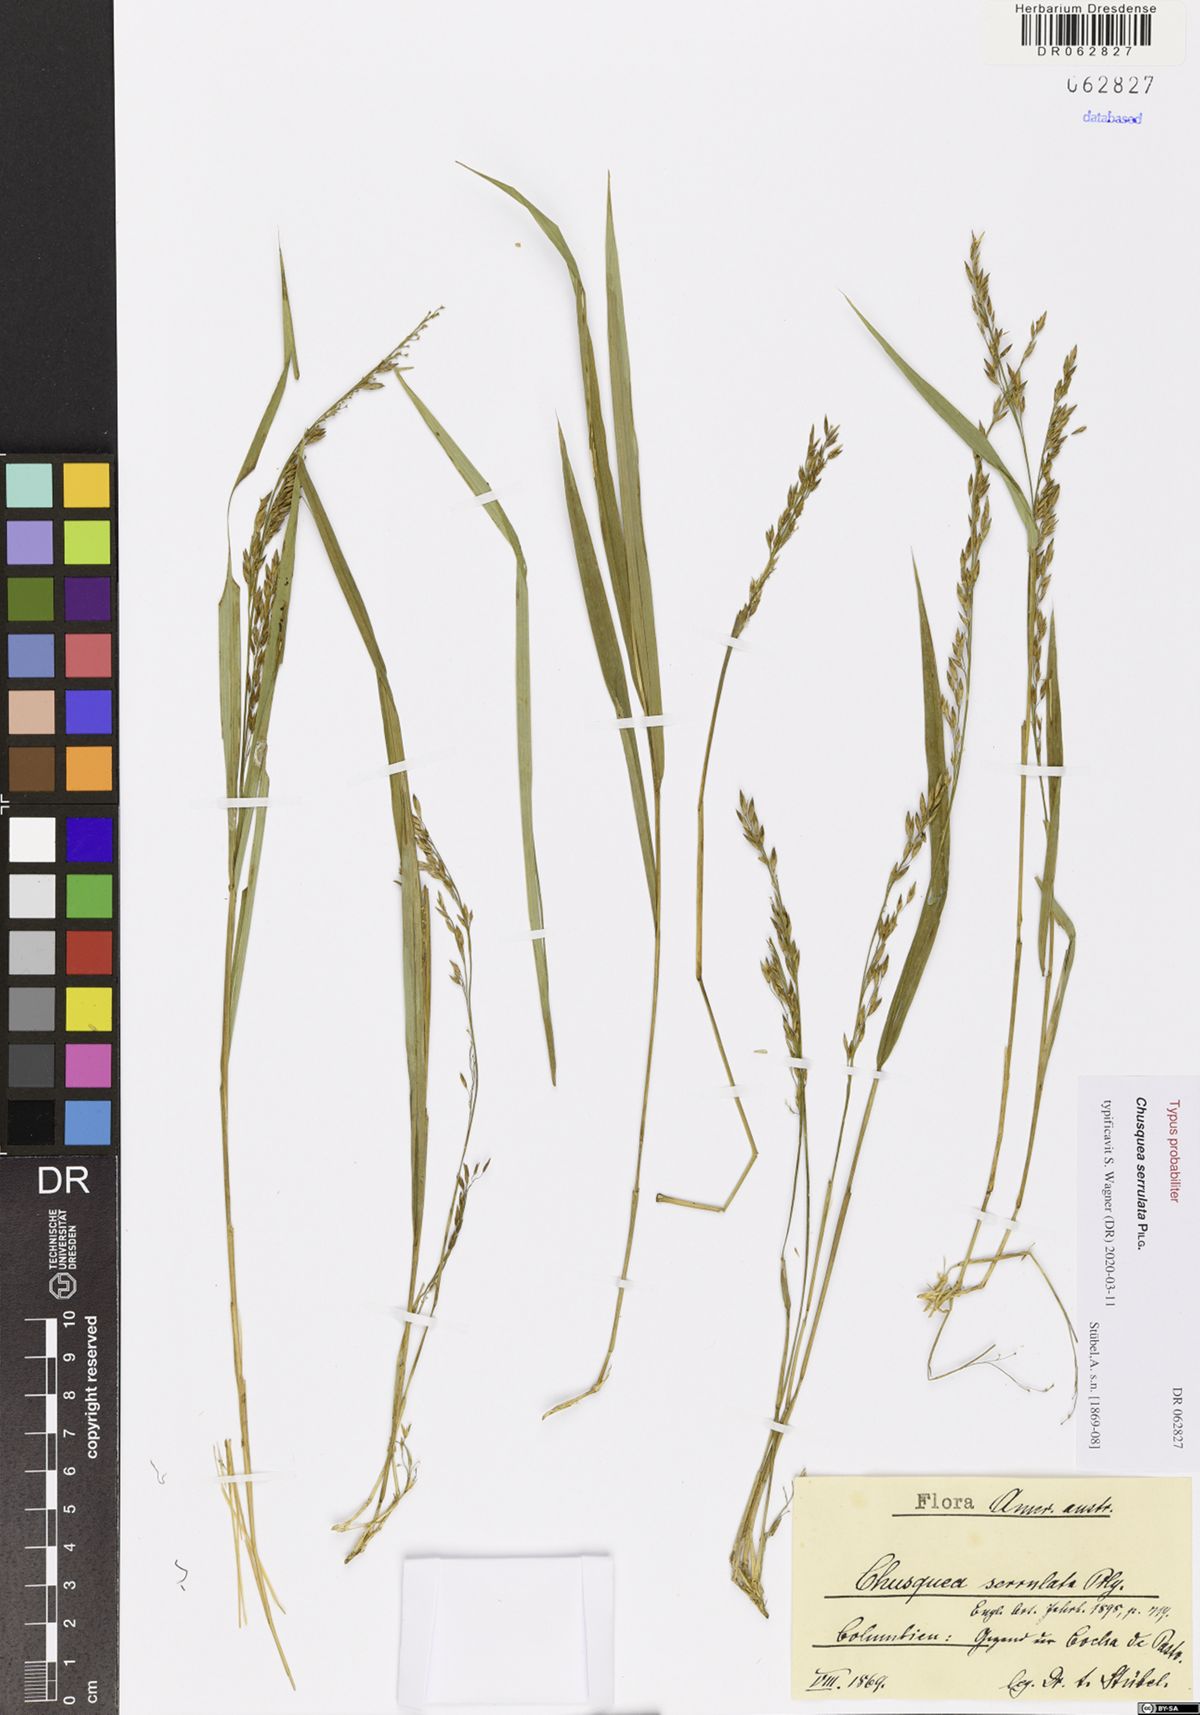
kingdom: Plantae
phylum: Tracheophyta
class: Liliopsida
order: Poales
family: Poaceae
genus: Chusquea
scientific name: Chusquea serrulata
